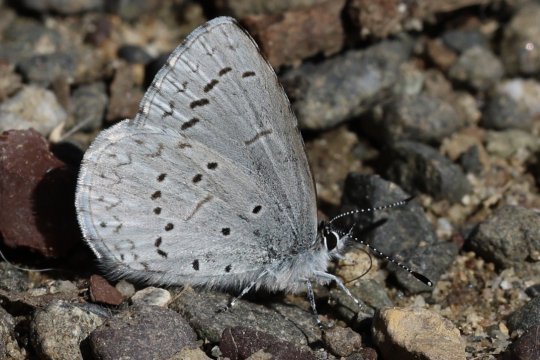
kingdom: Animalia
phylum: Arthropoda
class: Insecta
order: Lepidoptera
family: Lycaenidae
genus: Celastrina
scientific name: Celastrina ladon
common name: Echo Azure
